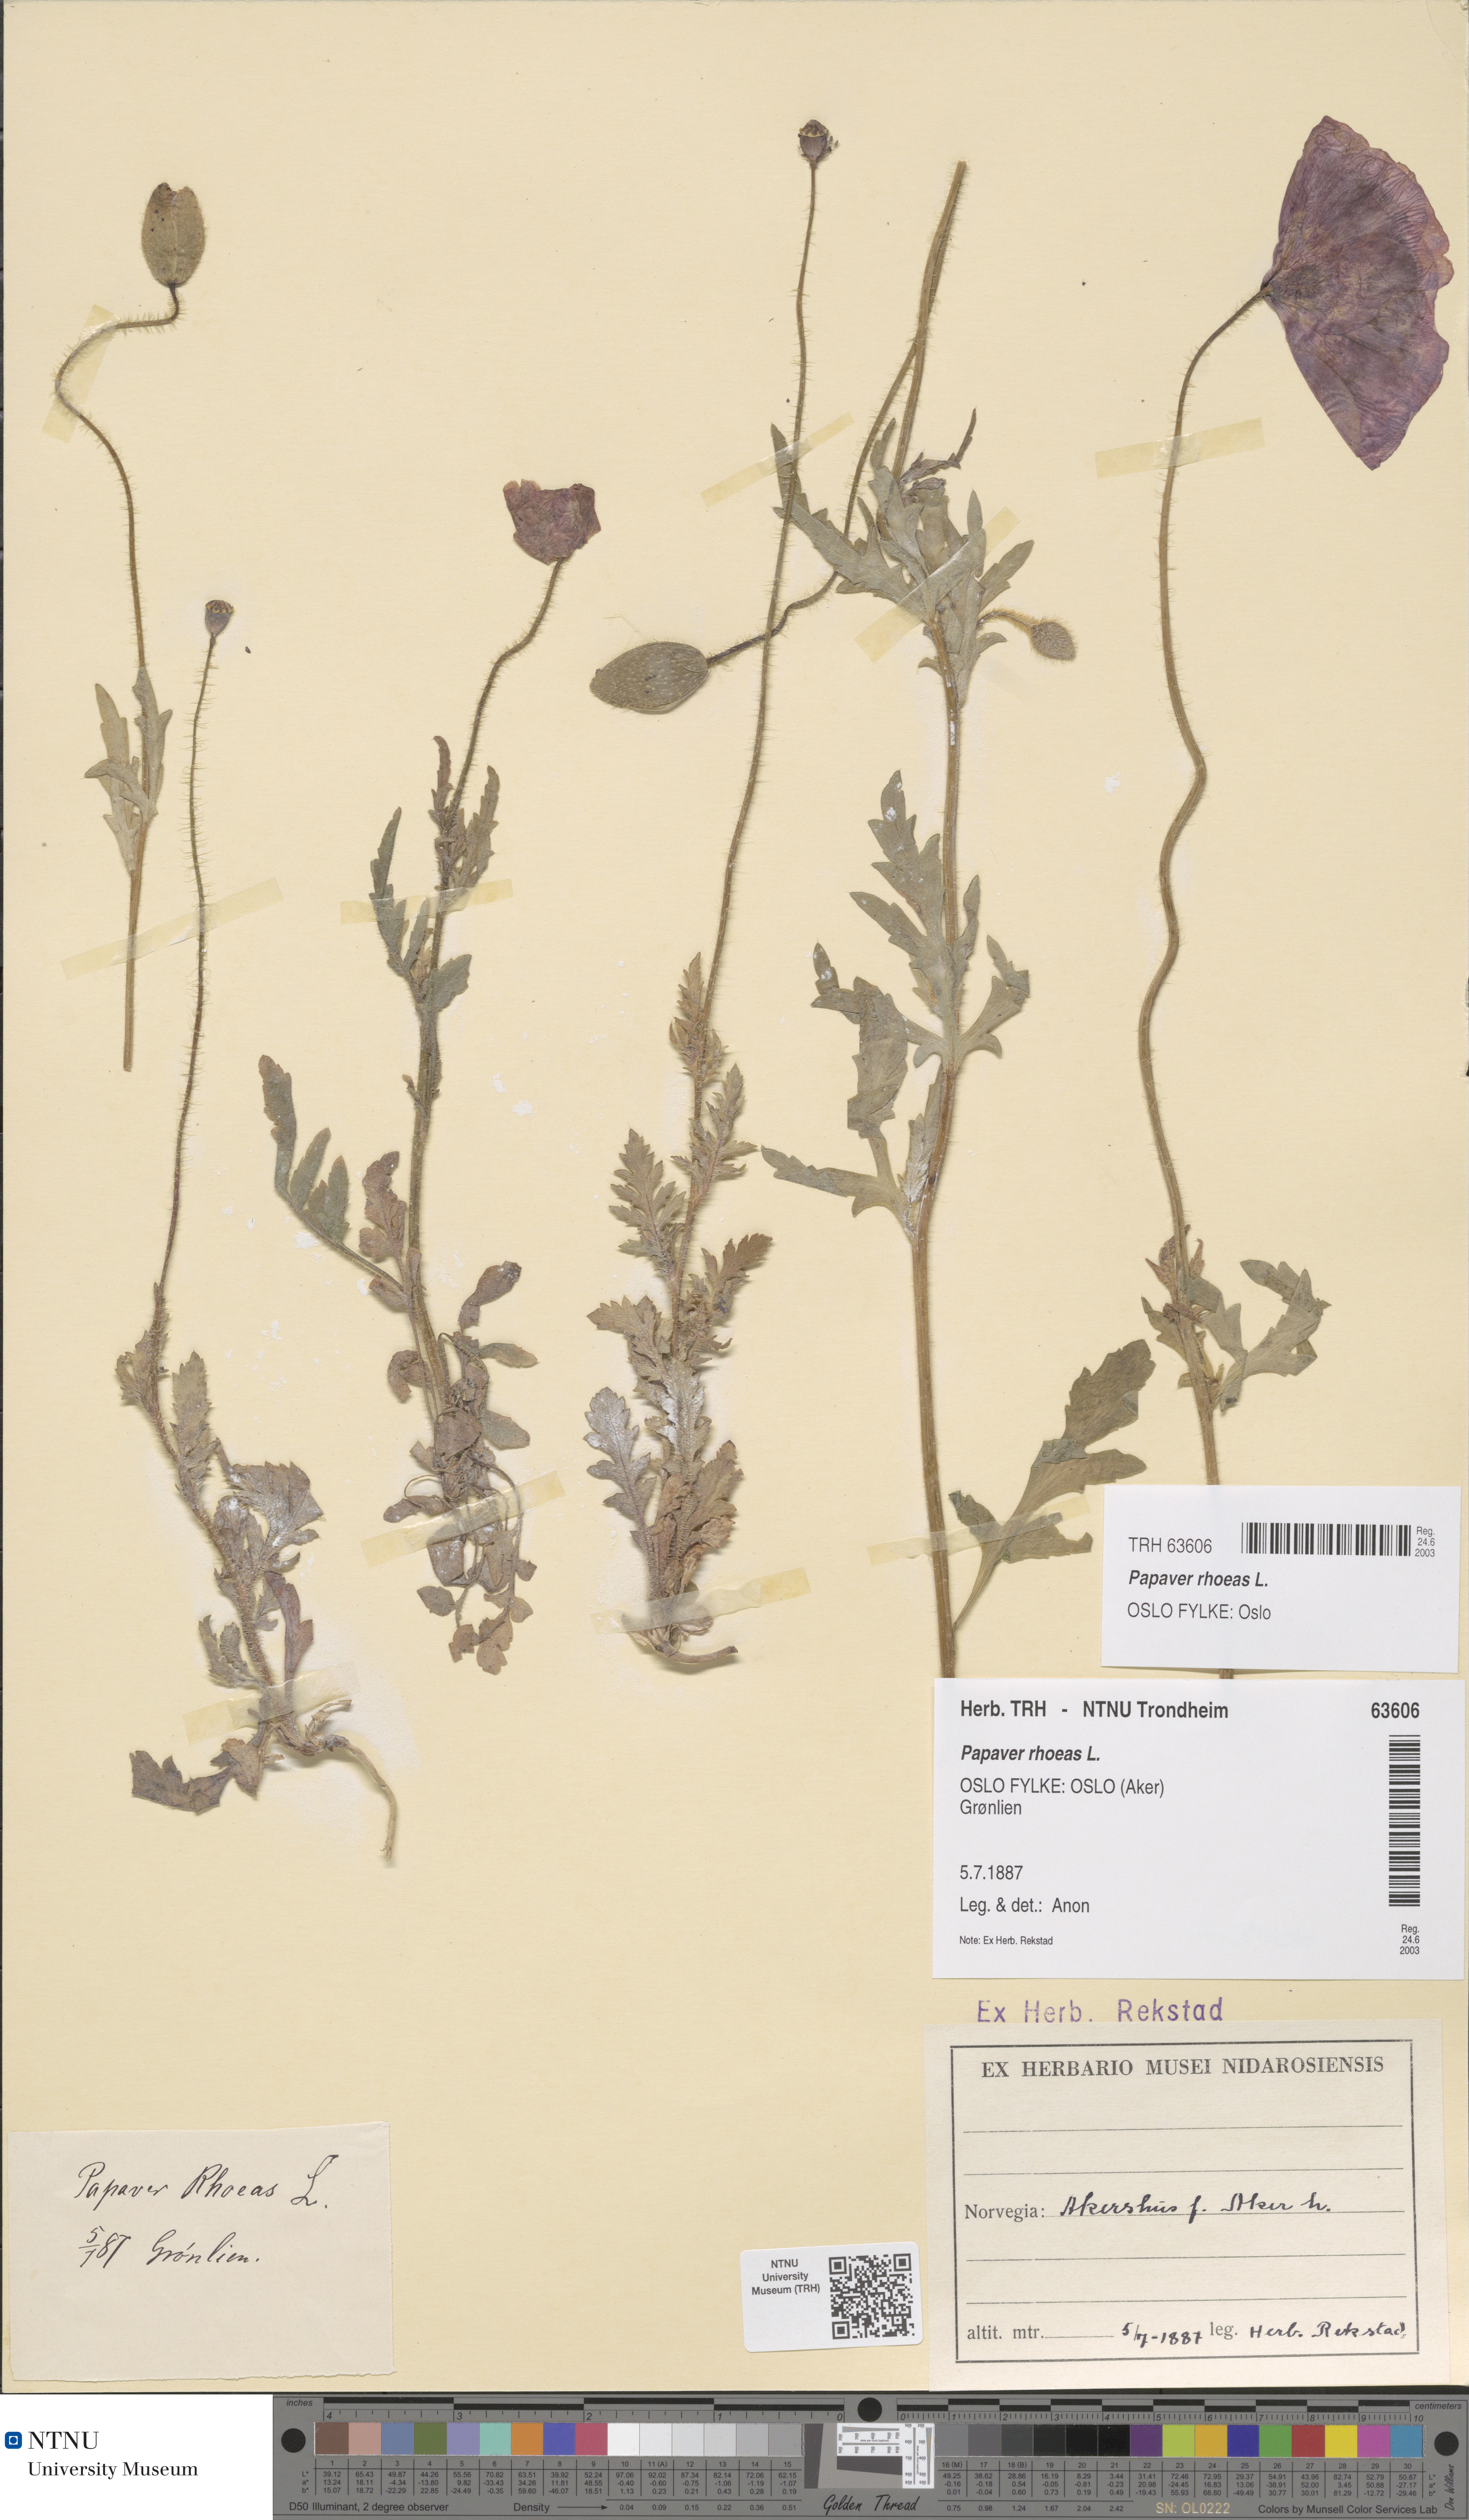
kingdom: Plantae
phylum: Tracheophyta
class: Magnoliopsida
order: Ranunculales
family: Papaveraceae
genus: Papaver
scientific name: Papaver rhoeas
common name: Corn poppy
